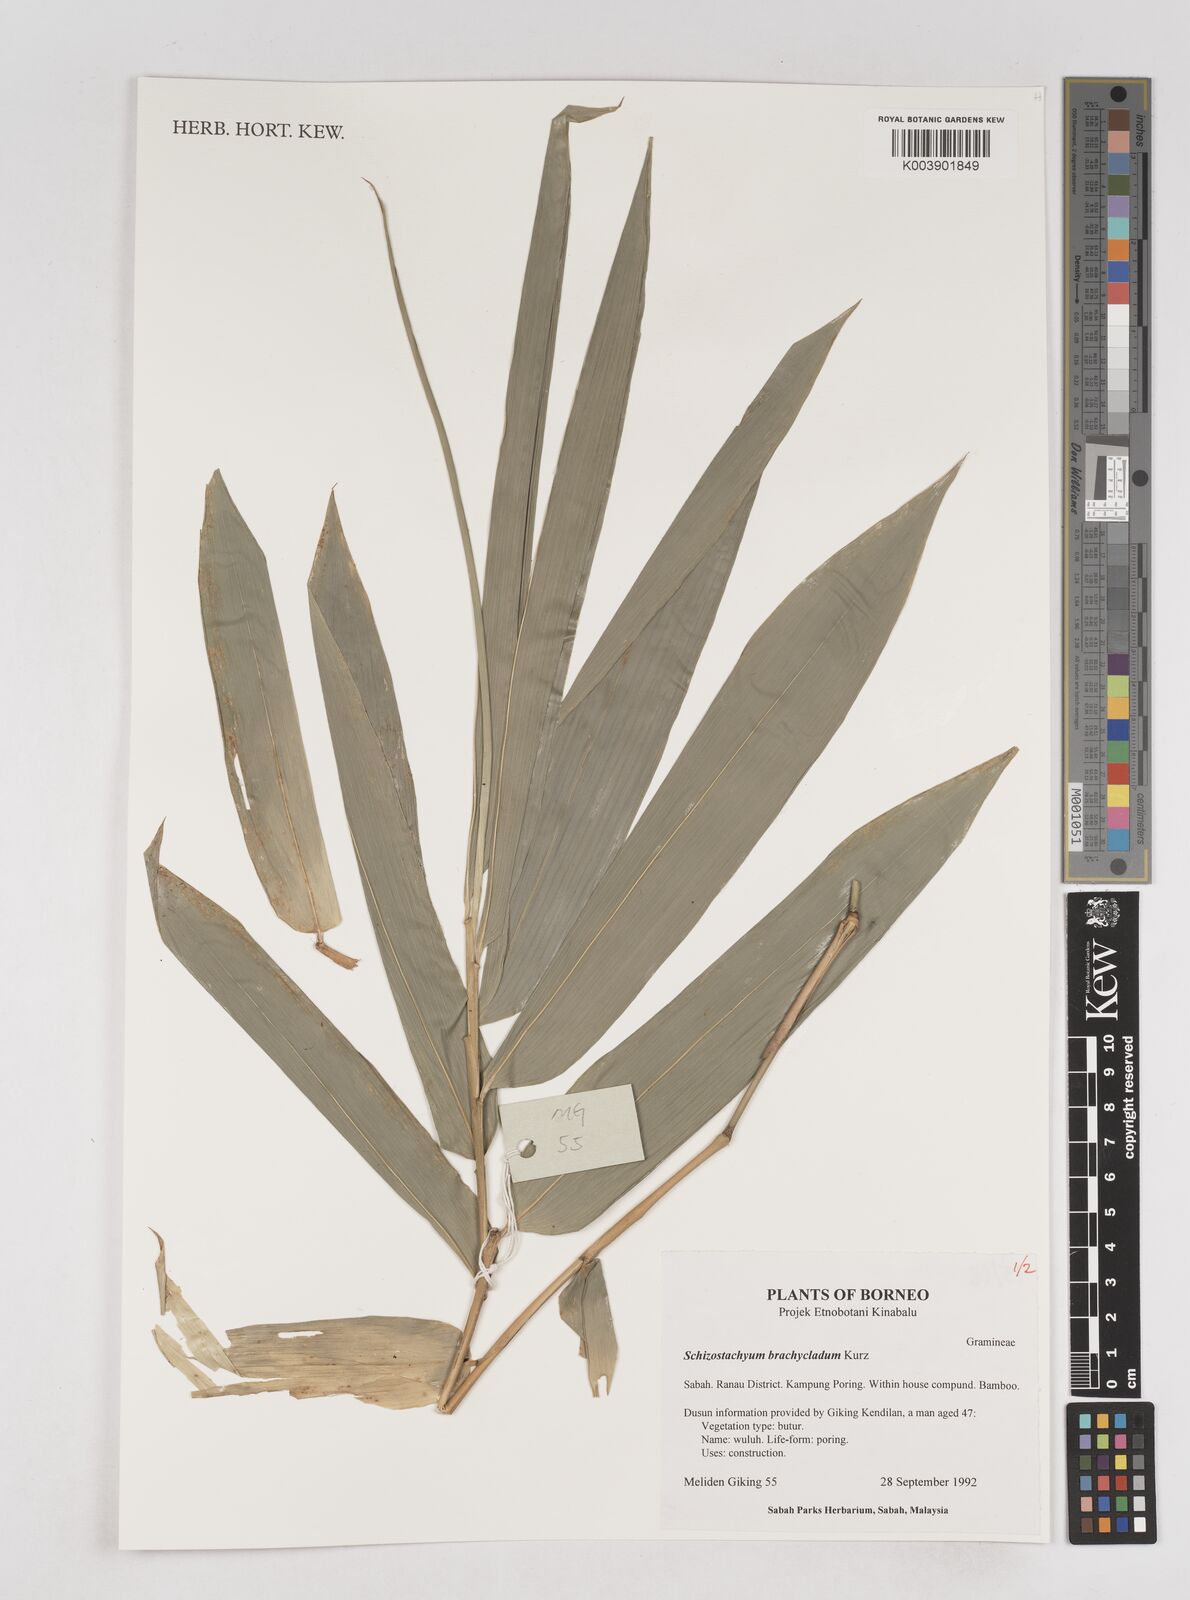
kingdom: Plantae
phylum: Tracheophyta
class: Liliopsida
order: Poales
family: Poaceae
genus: Schizostachyum
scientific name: Schizostachyum brachycladum
